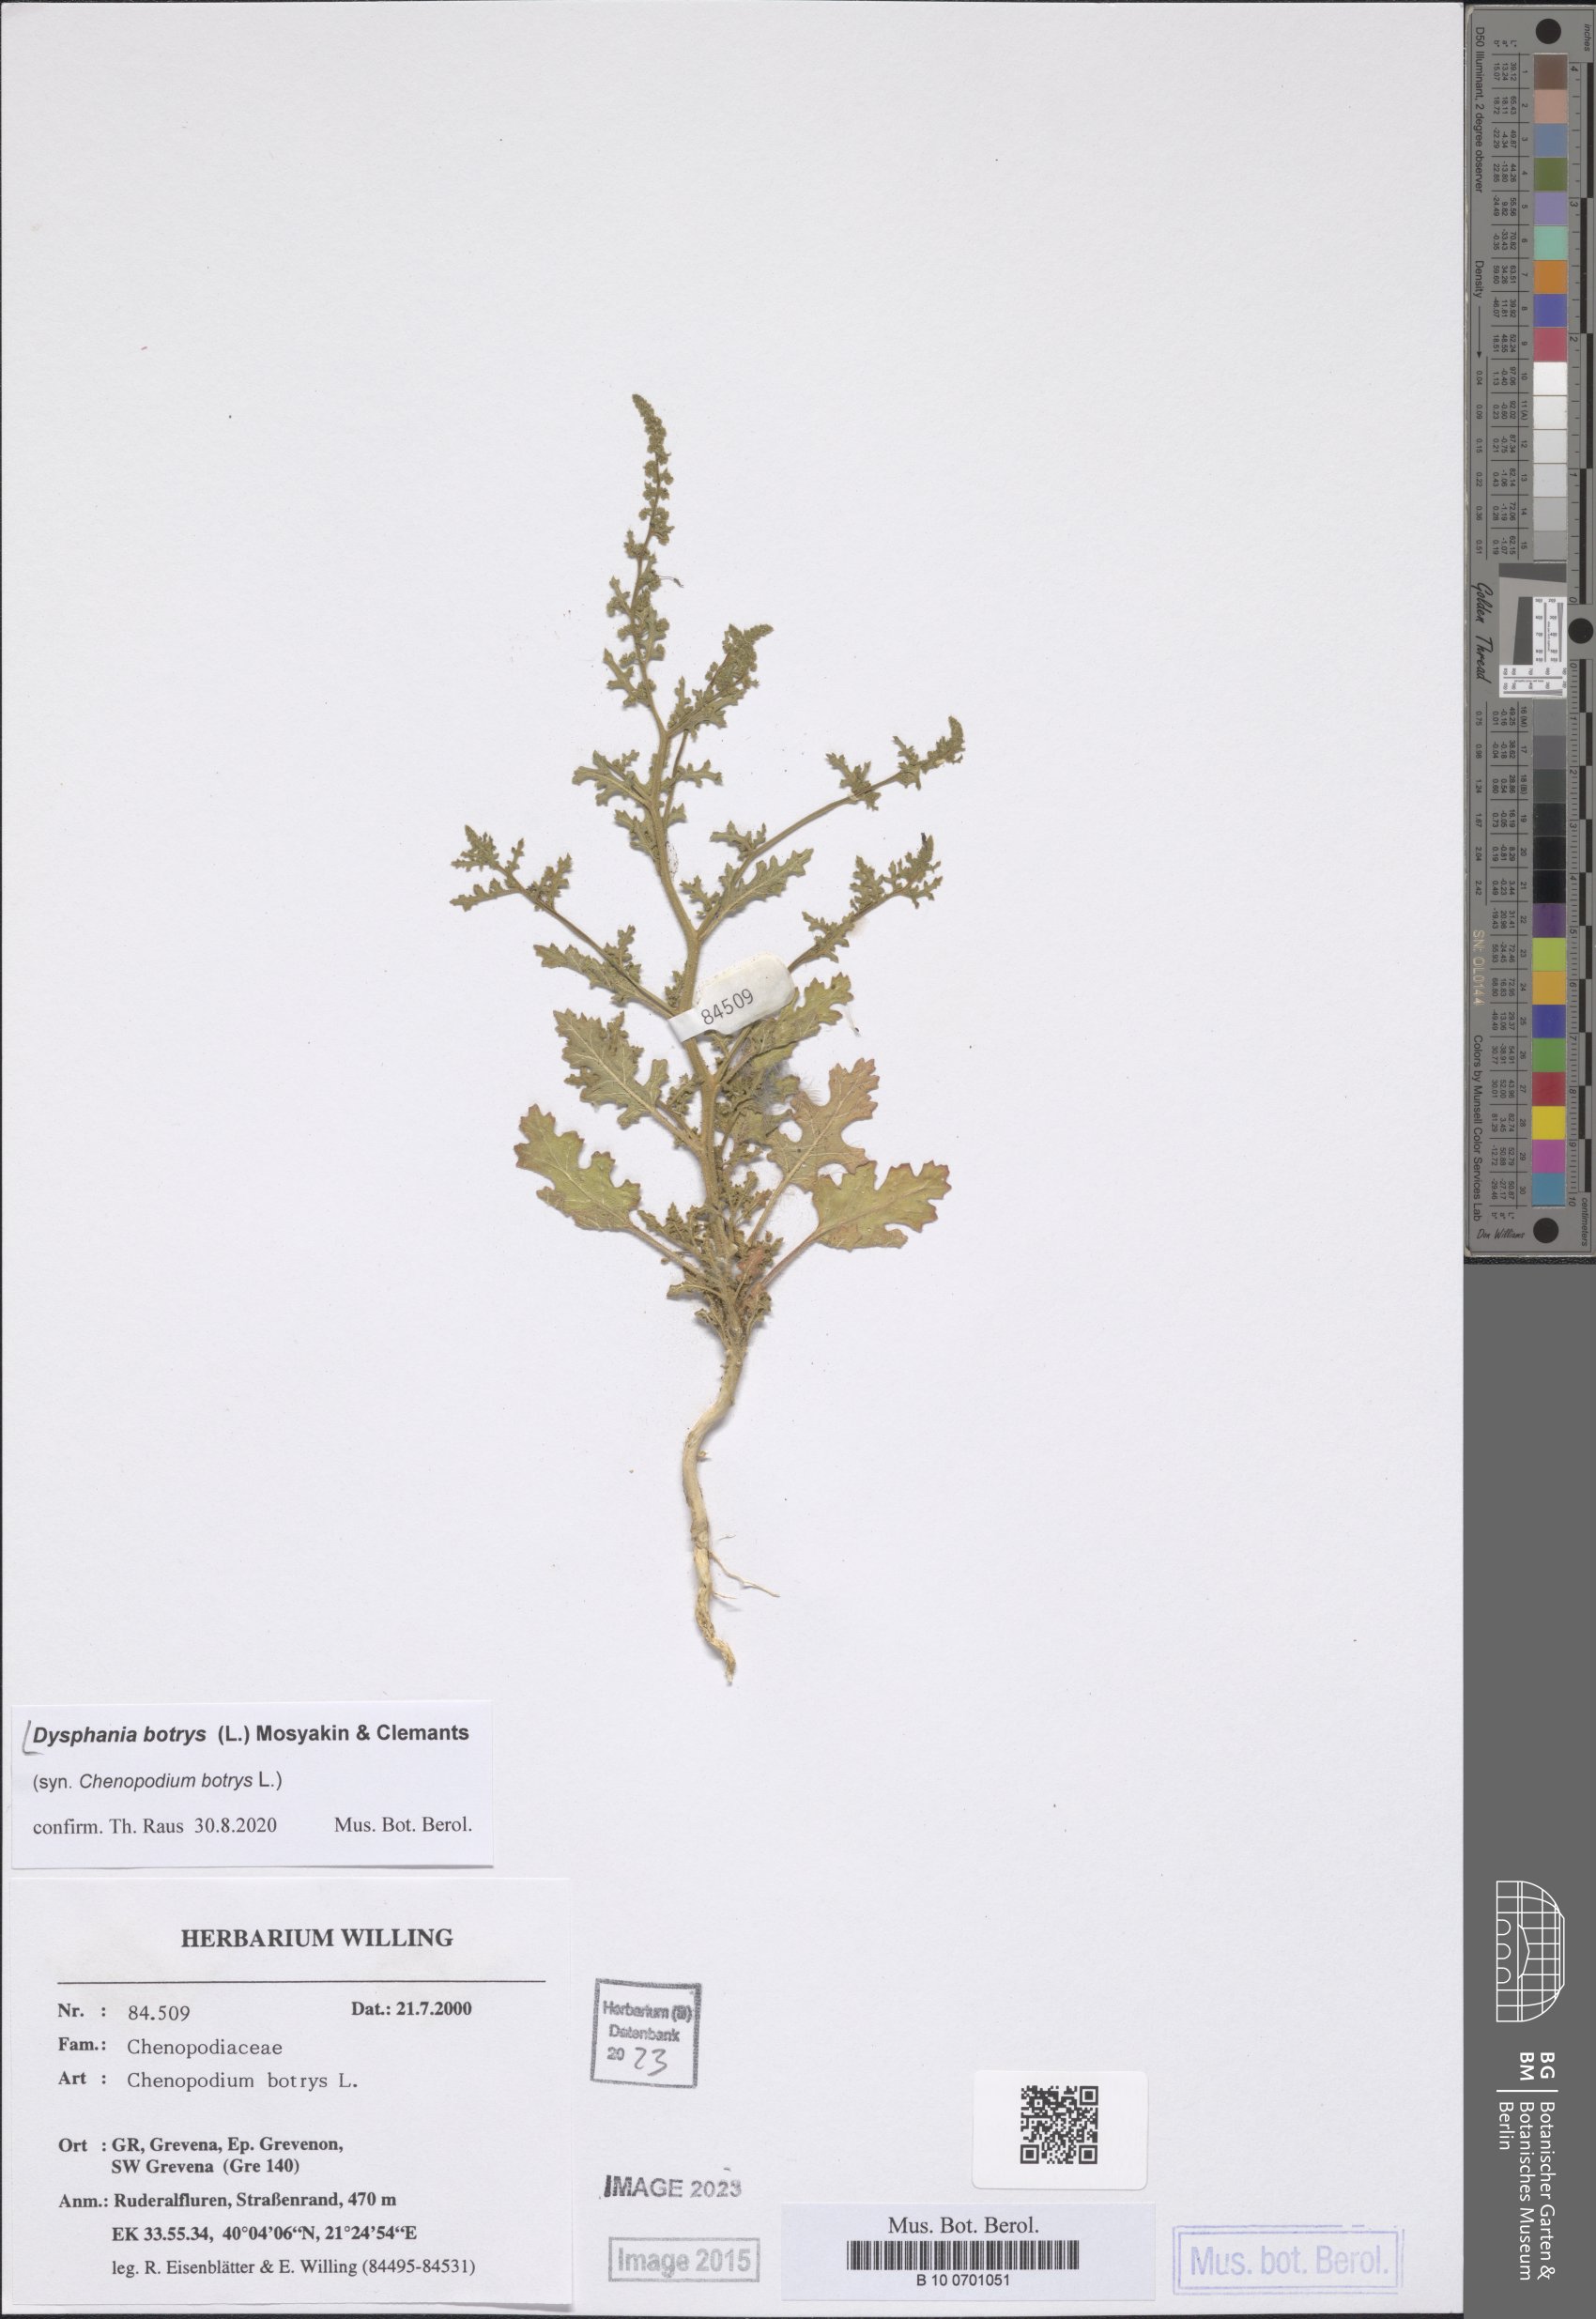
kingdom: Plantae
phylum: Tracheophyta
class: Magnoliopsida
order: Caryophyllales
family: Amaranthaceae
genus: Dysphania
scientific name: Dysphania botrys
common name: Feather-geranium
